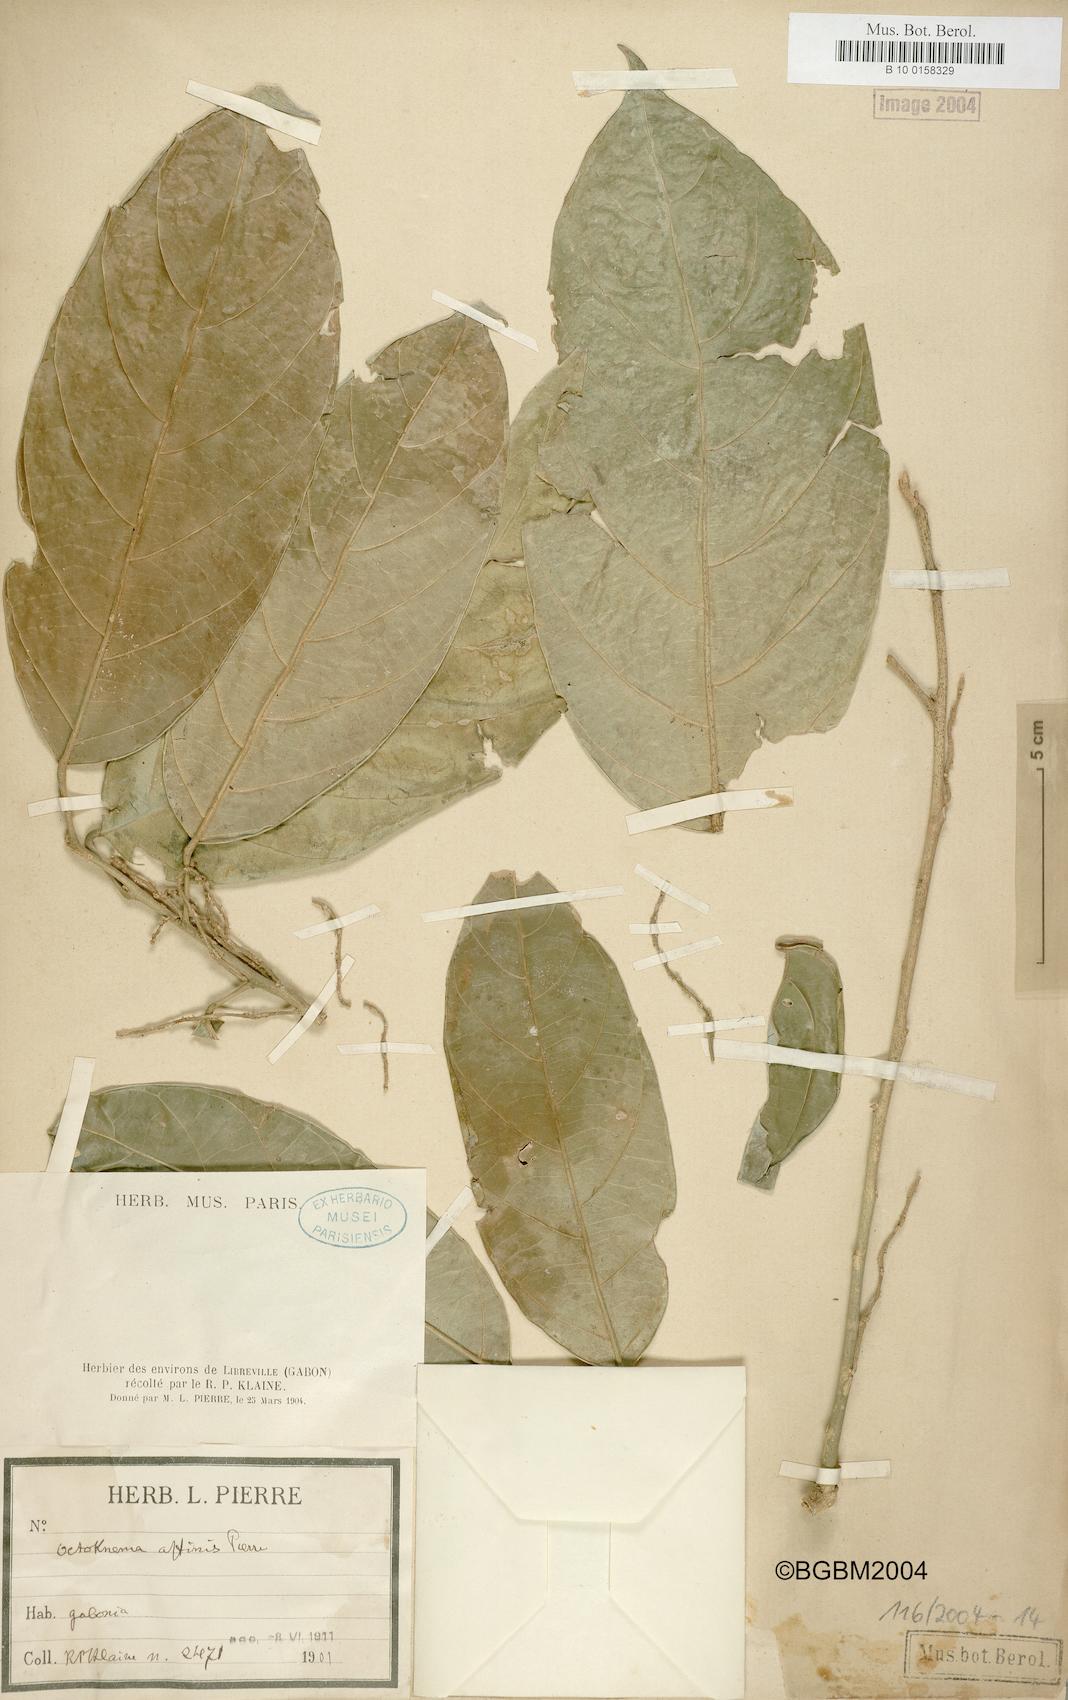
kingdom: Plantae
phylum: Tracheophyta
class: Magnoliopsida
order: Santalales
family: Octoknemaceae
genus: Octoknema
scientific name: Octoknema affinis
